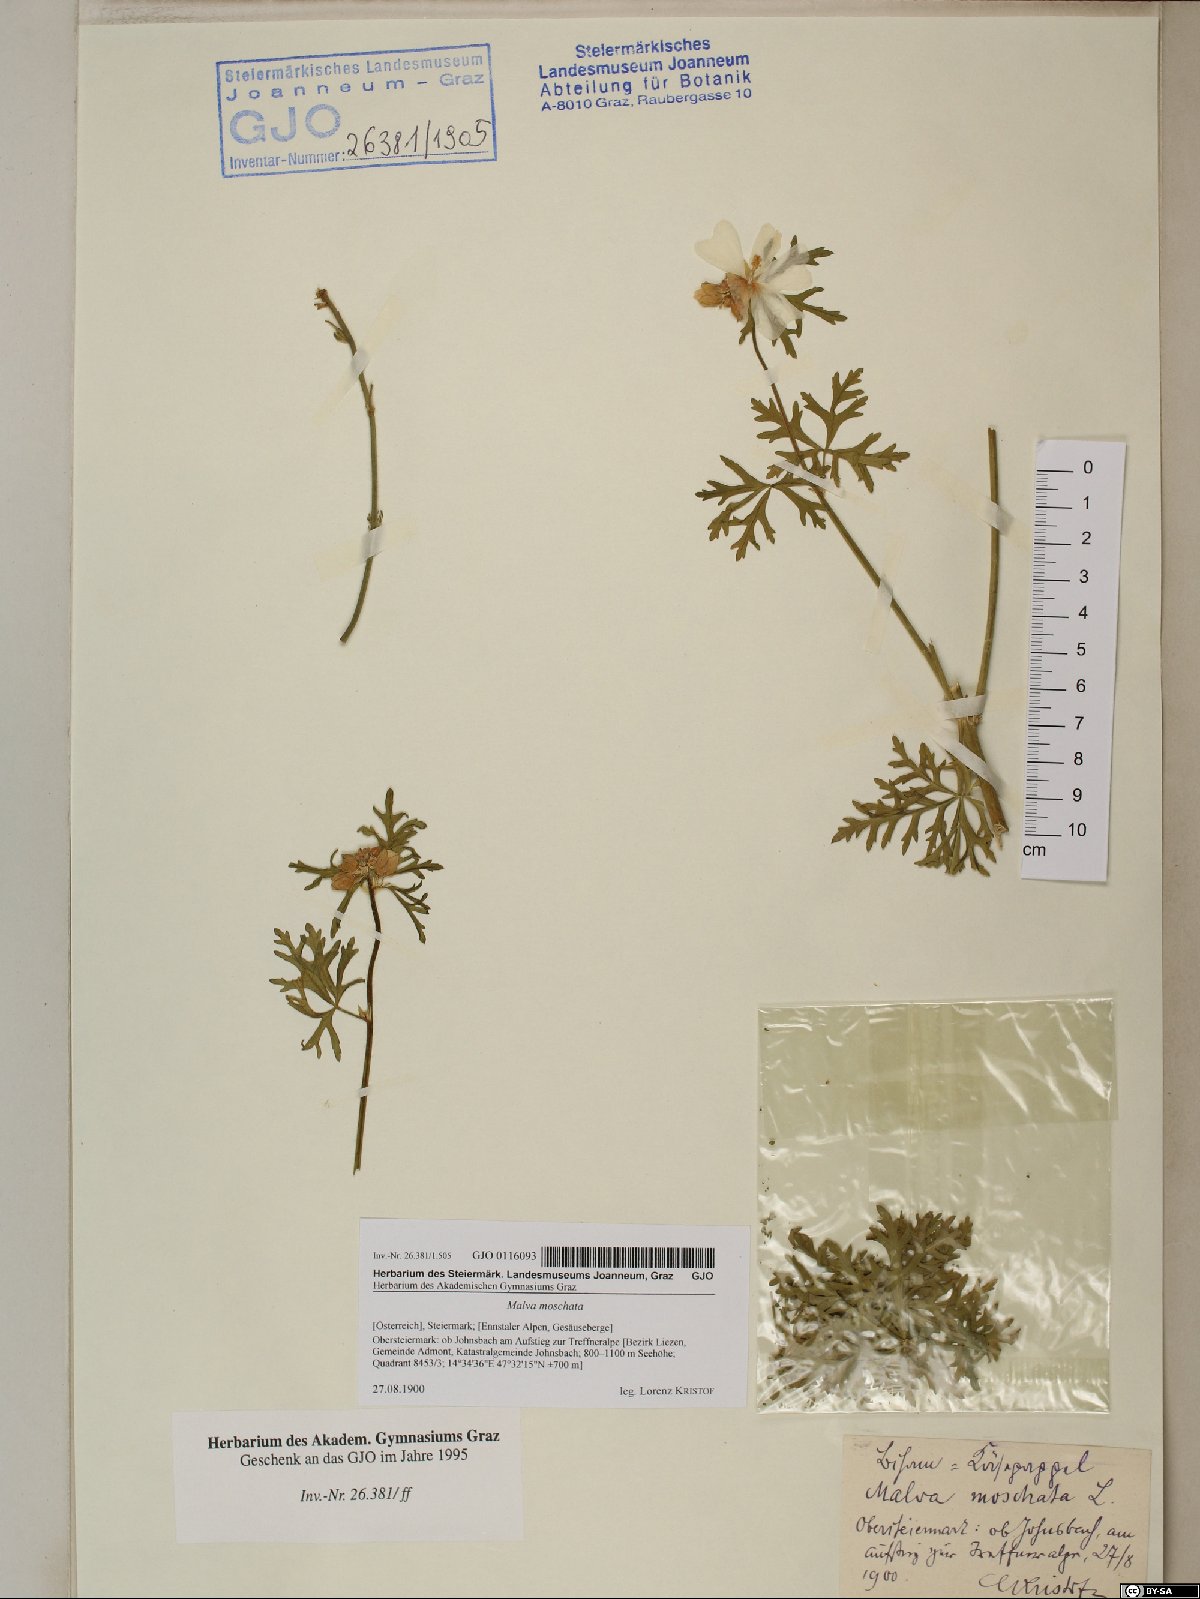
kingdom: Plantae
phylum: Tracheophyta
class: Magnoliopsida
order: Malvales
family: Malvaceae
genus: Malva
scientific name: Malva moschata
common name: Musk mallow
